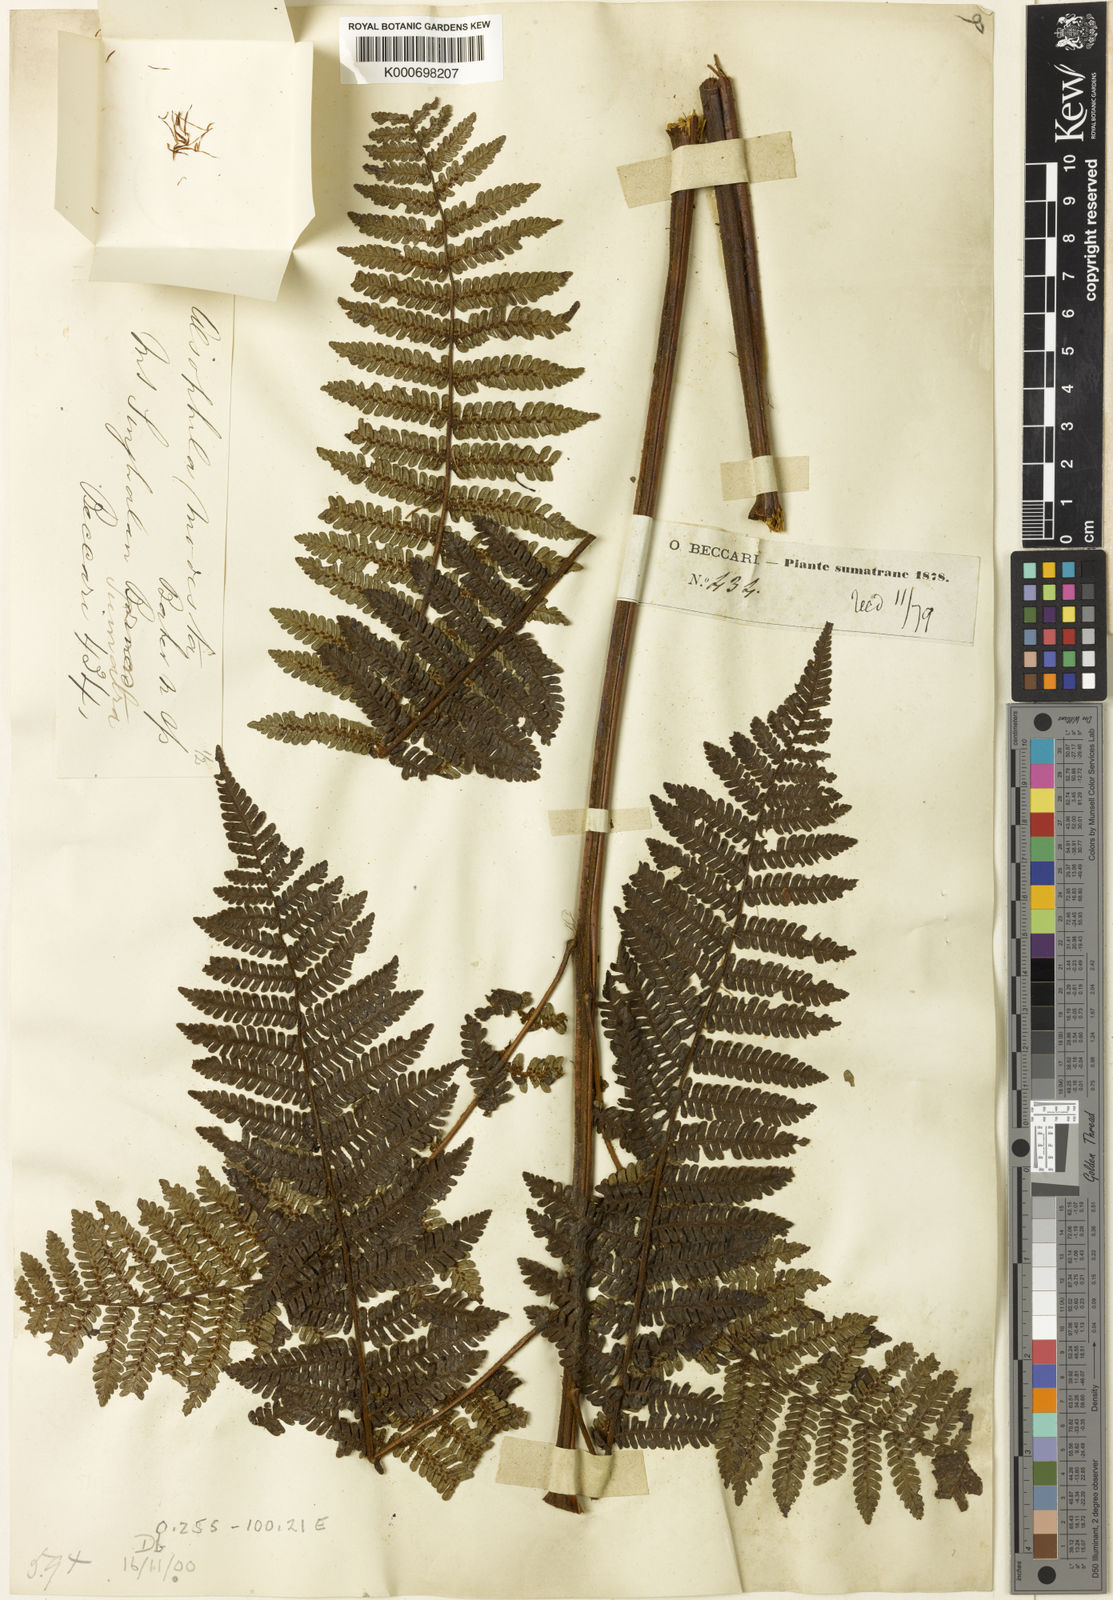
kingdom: Plantae
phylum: Tracheophyta
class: Polypodiopsida
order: Cyatheales
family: Cyatheaceae
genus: Alsophila
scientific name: Alsophila modesta
